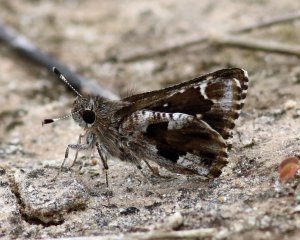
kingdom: Animalia
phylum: Arthropoda
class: Insecta
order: Lepidoptera
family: Hesperiidae
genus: Mastor
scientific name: Mastor nysa
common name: Nysa Roadside-Skipper
